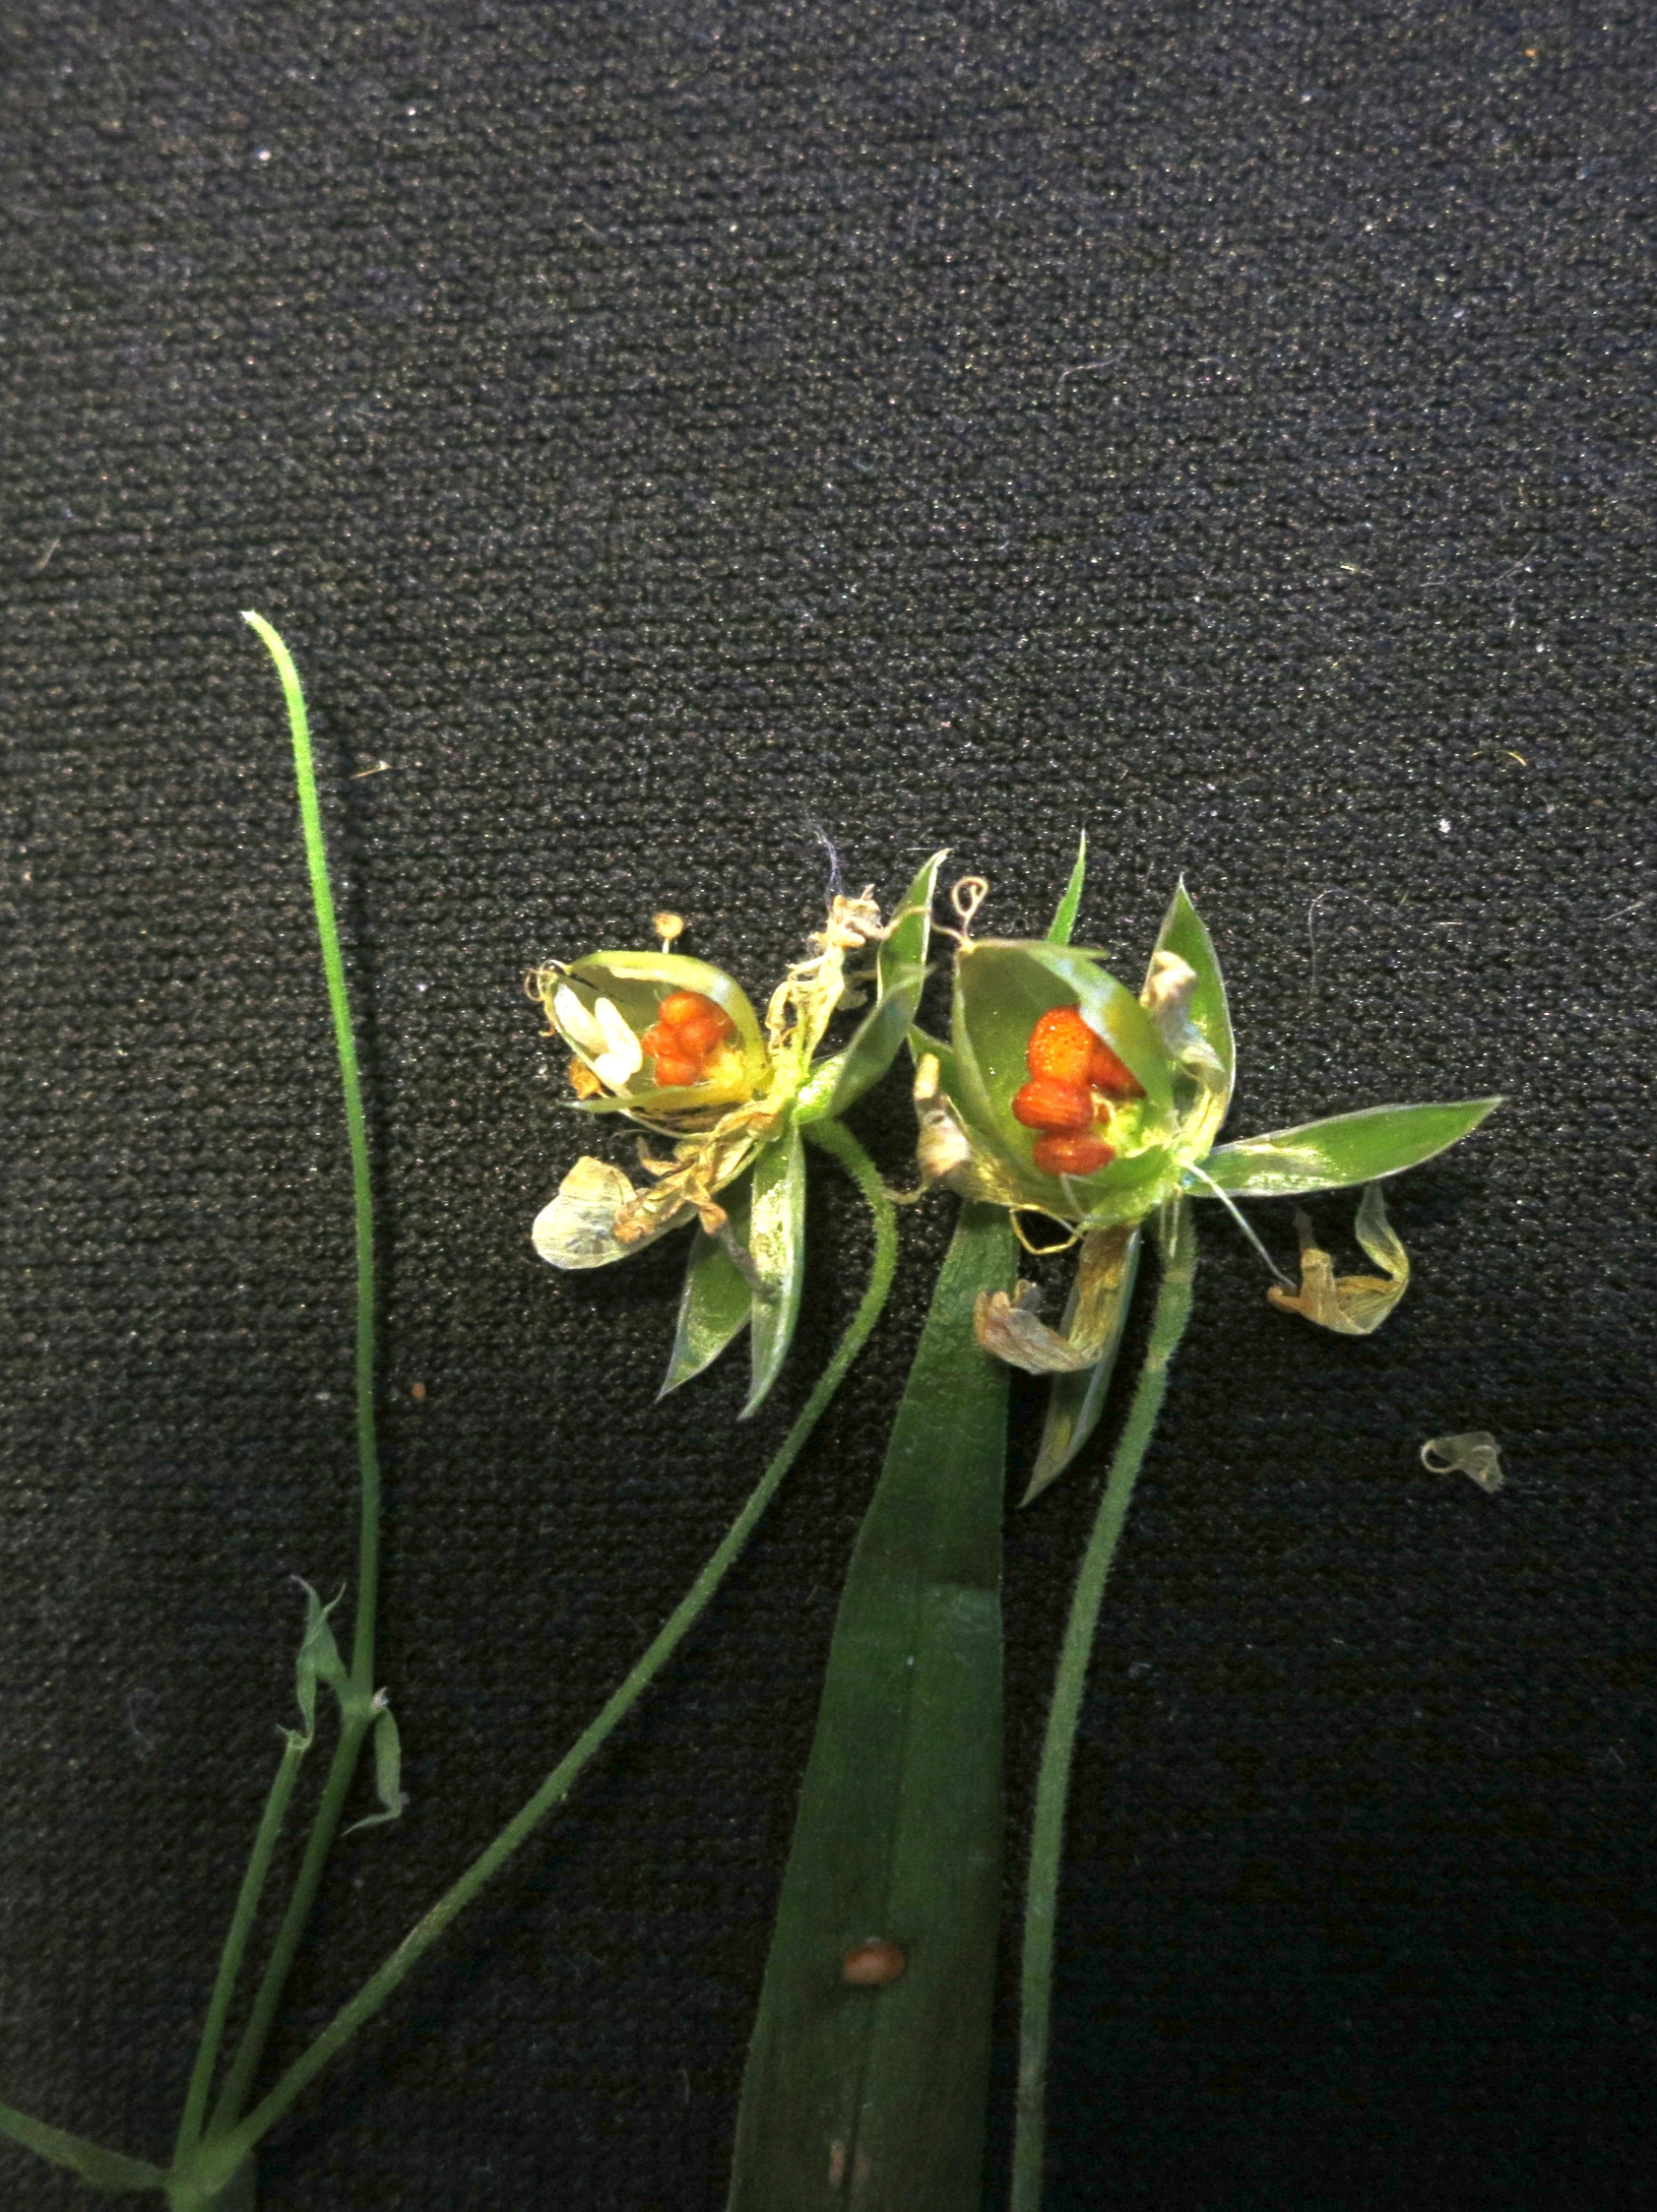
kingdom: Animalia
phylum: Arthropoda
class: Insecta
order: Diptera
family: Cecidomyiidae
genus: Dasineura
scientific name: Dasineura holosteae
